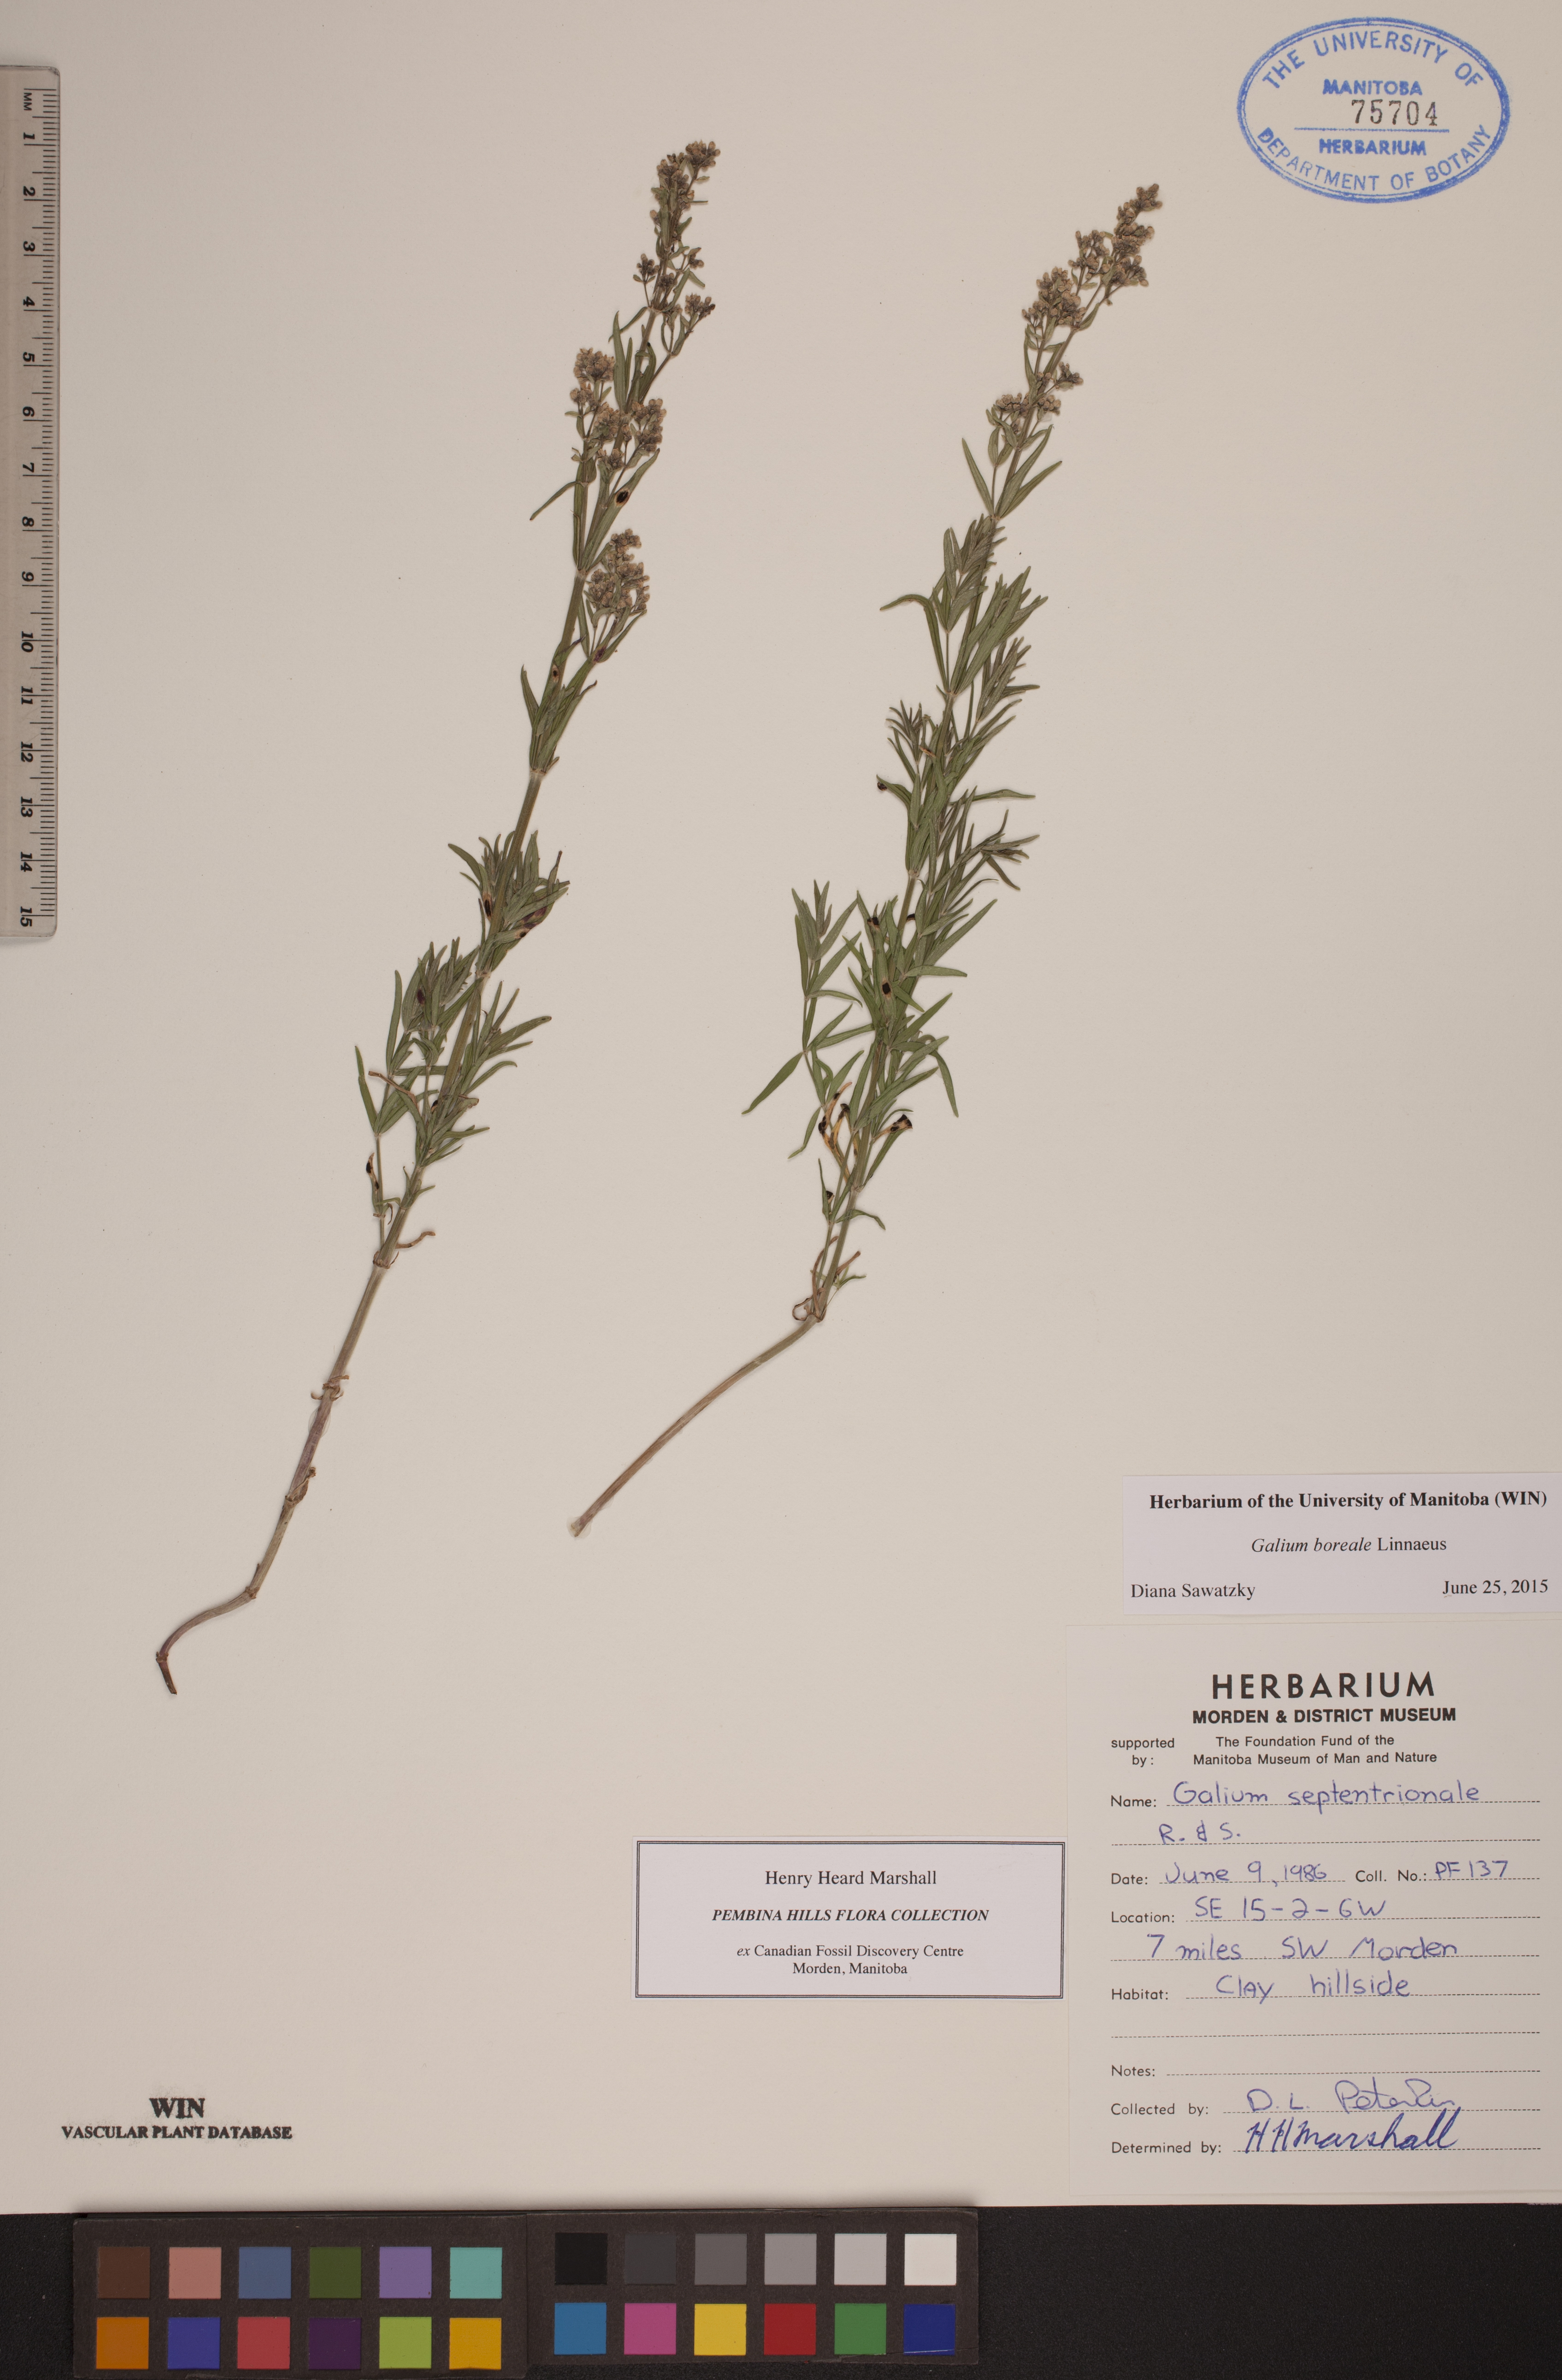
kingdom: Plantae
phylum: Tracheophyta
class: Magnoliopsida
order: Gentianales
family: Rubiaceae
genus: Galium
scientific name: Galium boreale
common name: Northern bedstraw
